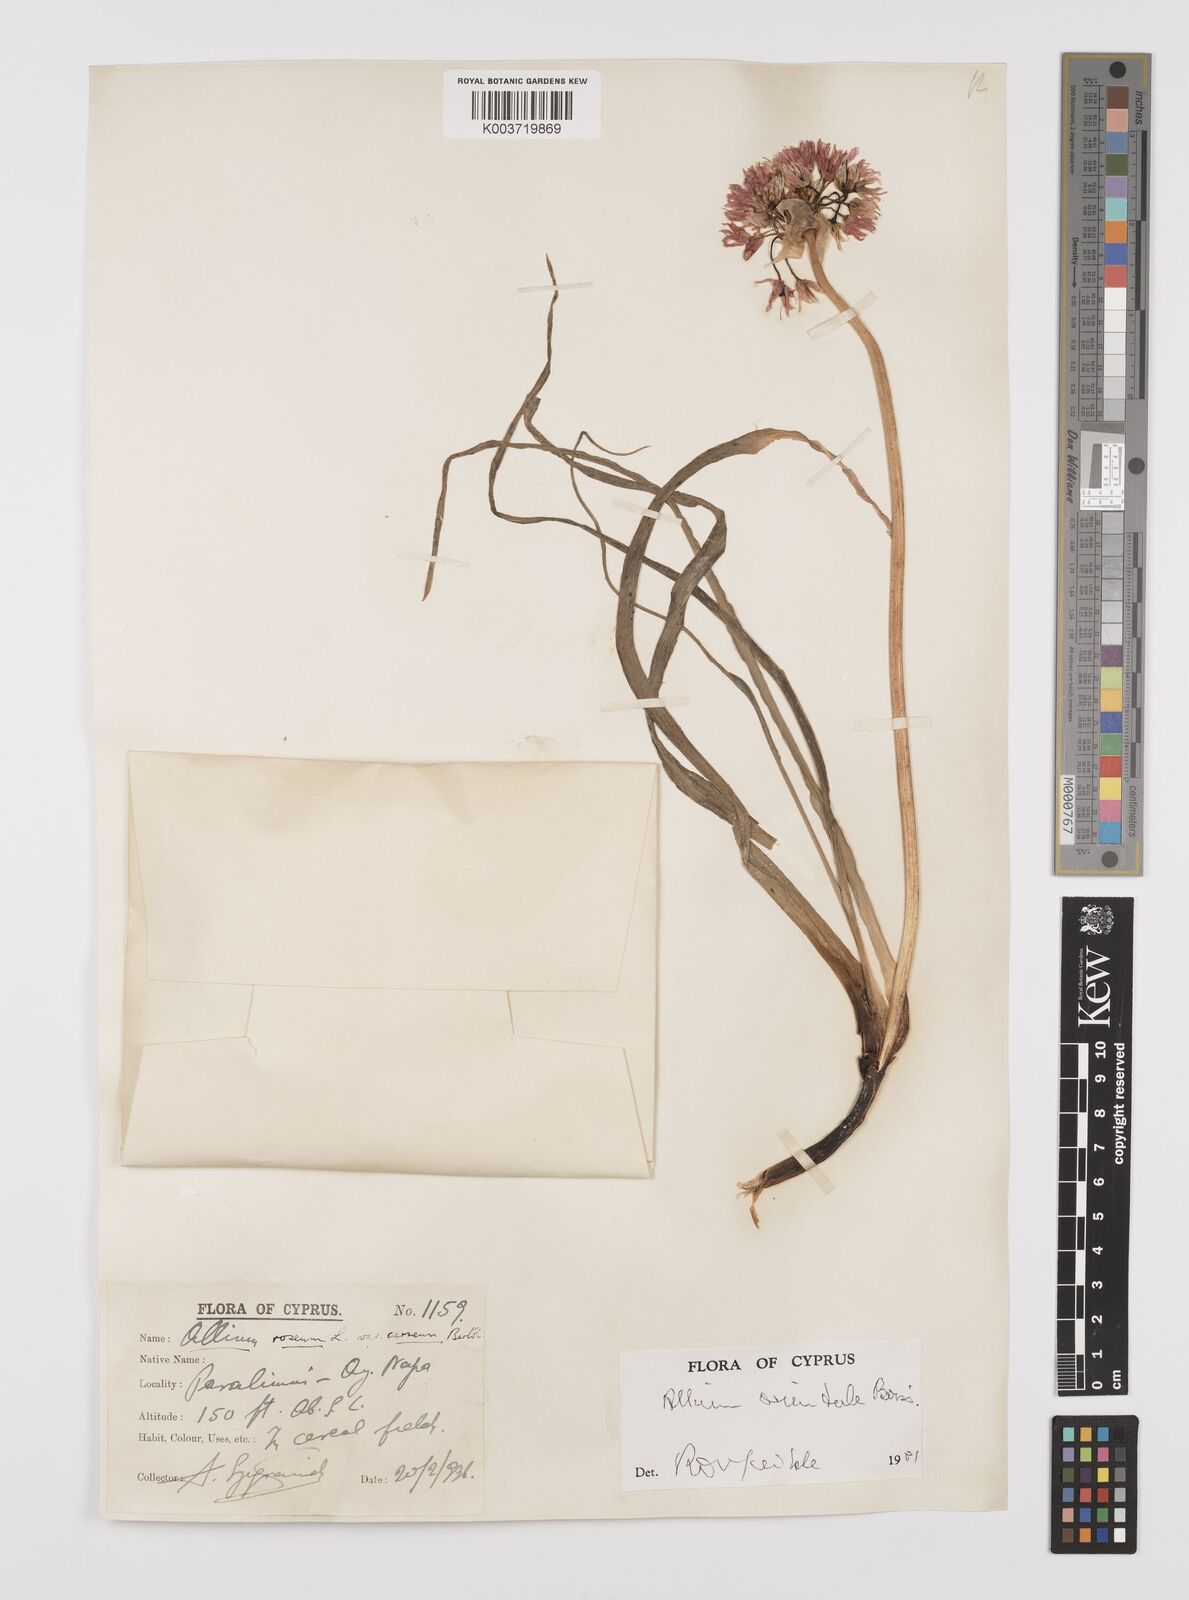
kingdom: Plantae
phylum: Tracheophyta
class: Liliopsida
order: Asparagales
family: Amaryllidaceae
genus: Allium
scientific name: Allium orientale
